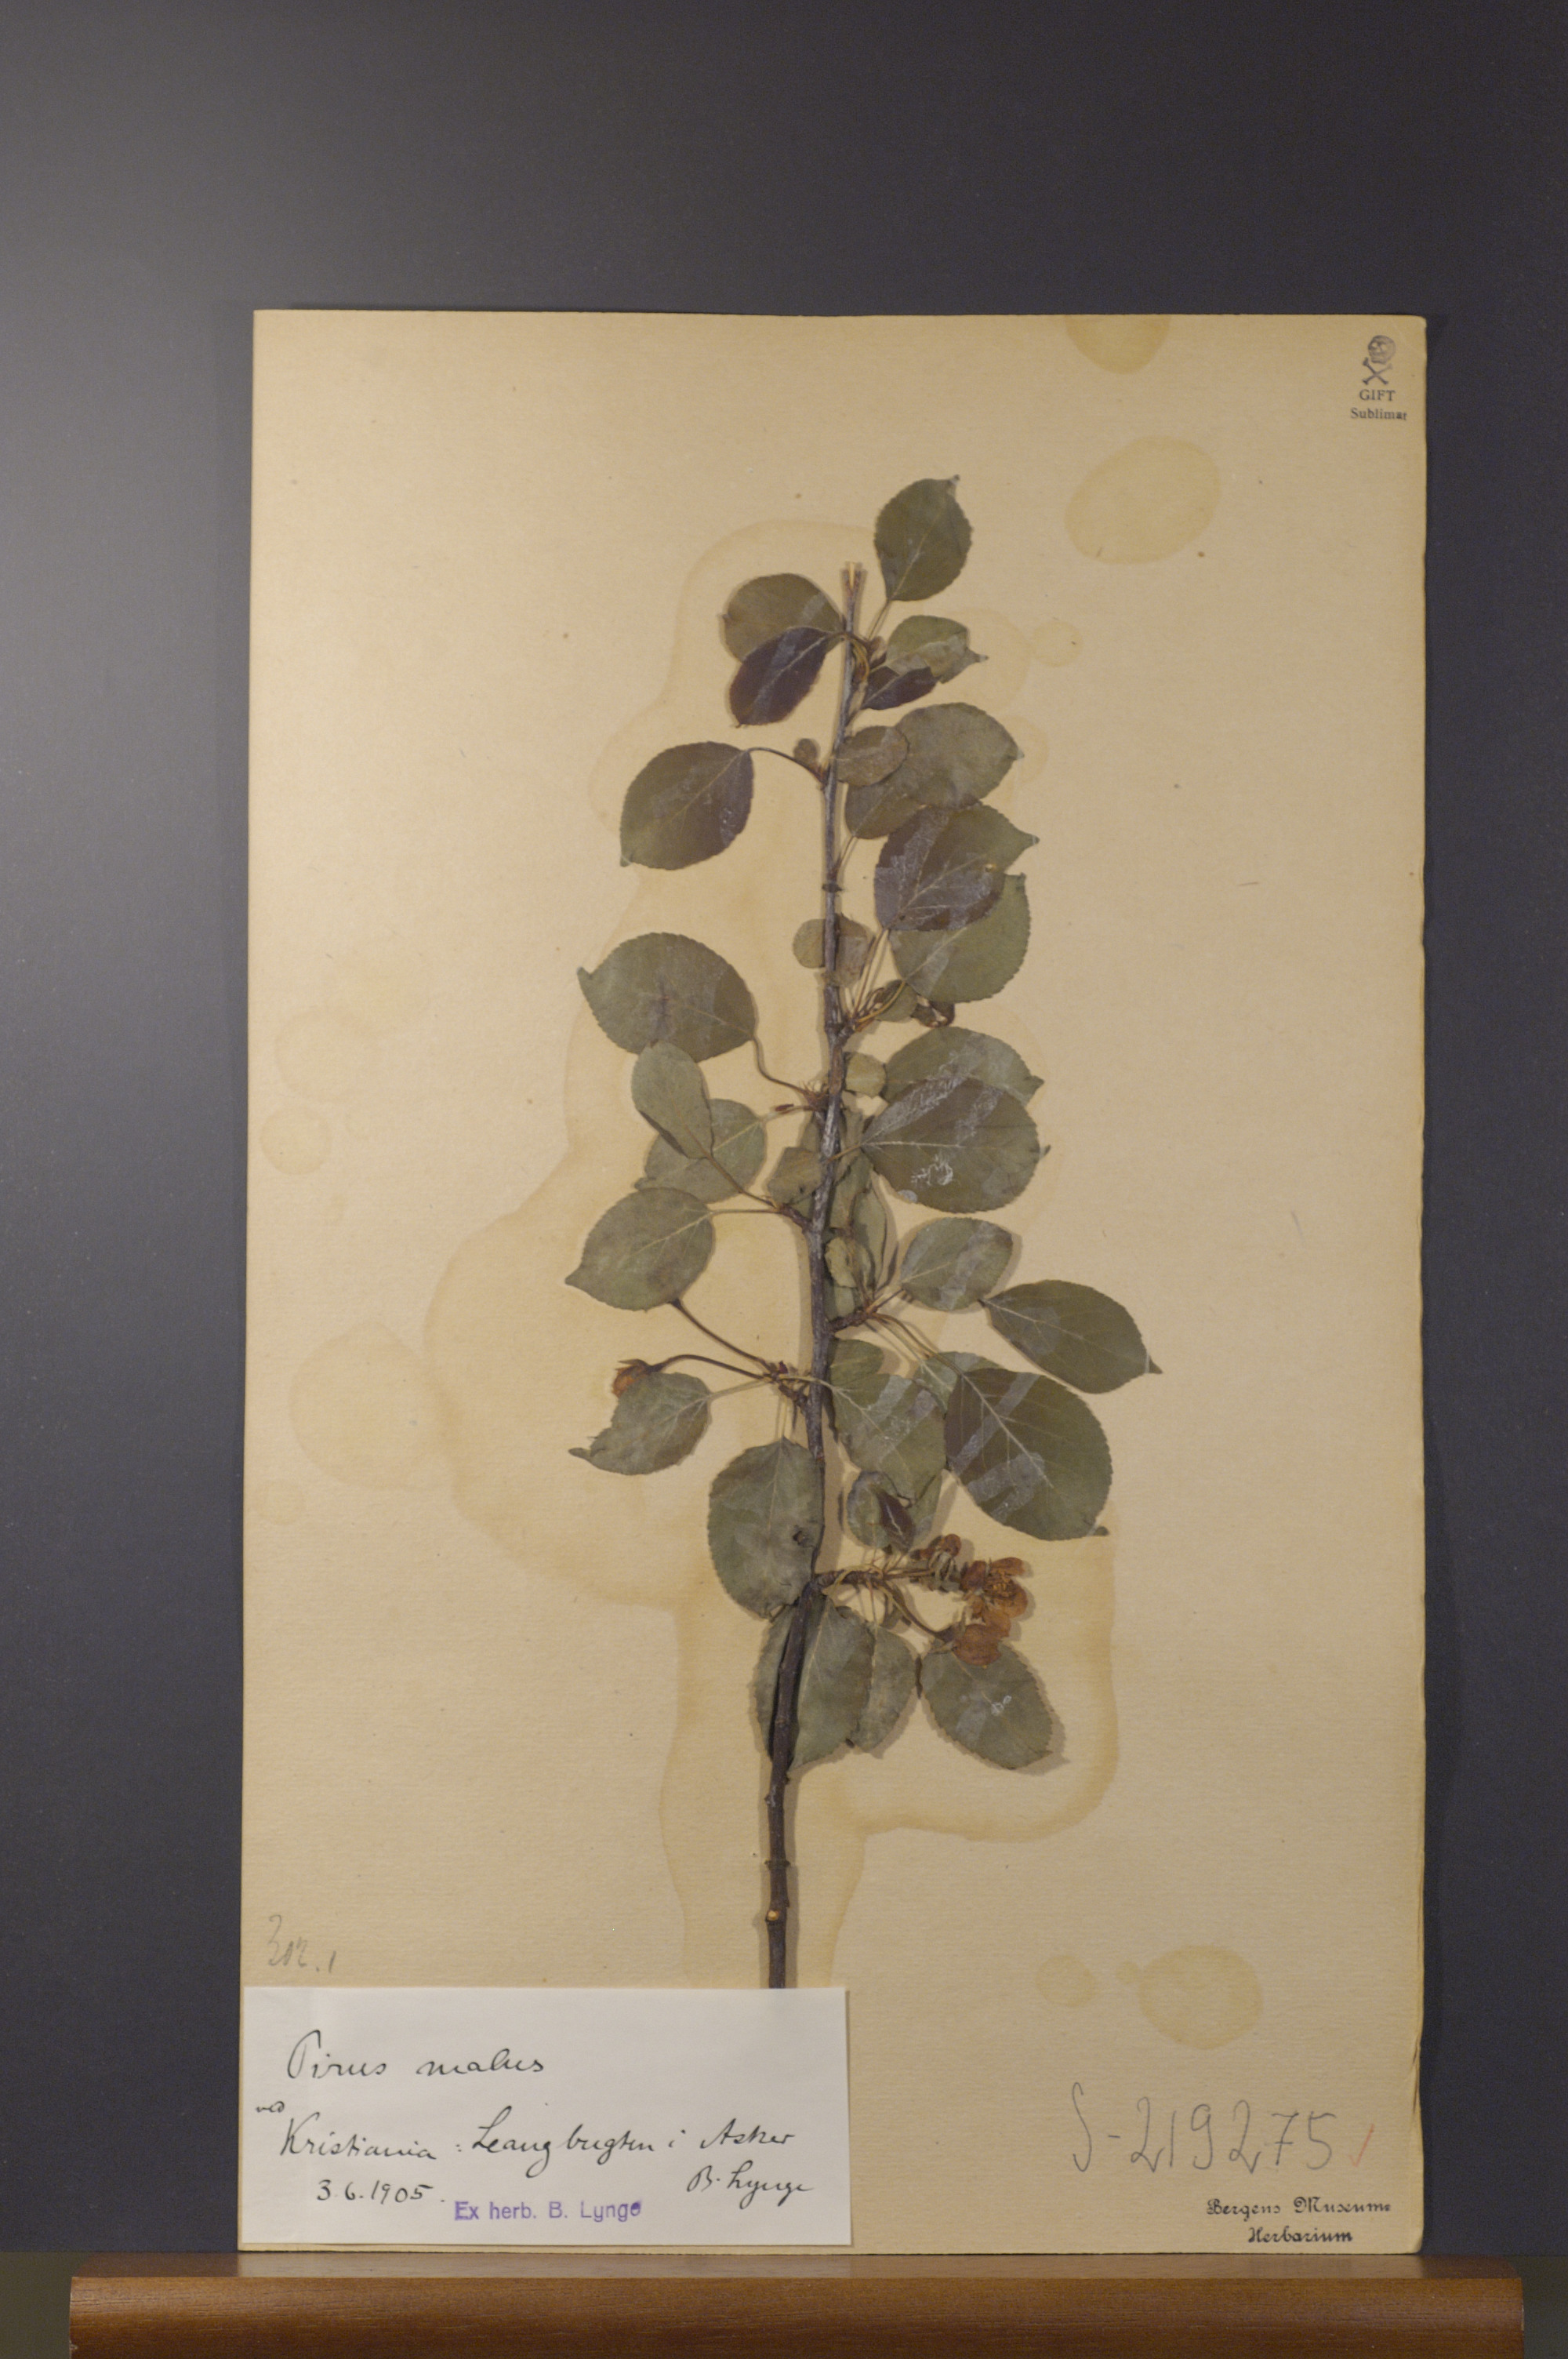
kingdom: Plantae
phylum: Tracheophyta
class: Magnoliopsida
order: Rosales
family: Rosaceae
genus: Malus
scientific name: Malus domestica
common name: Apple
